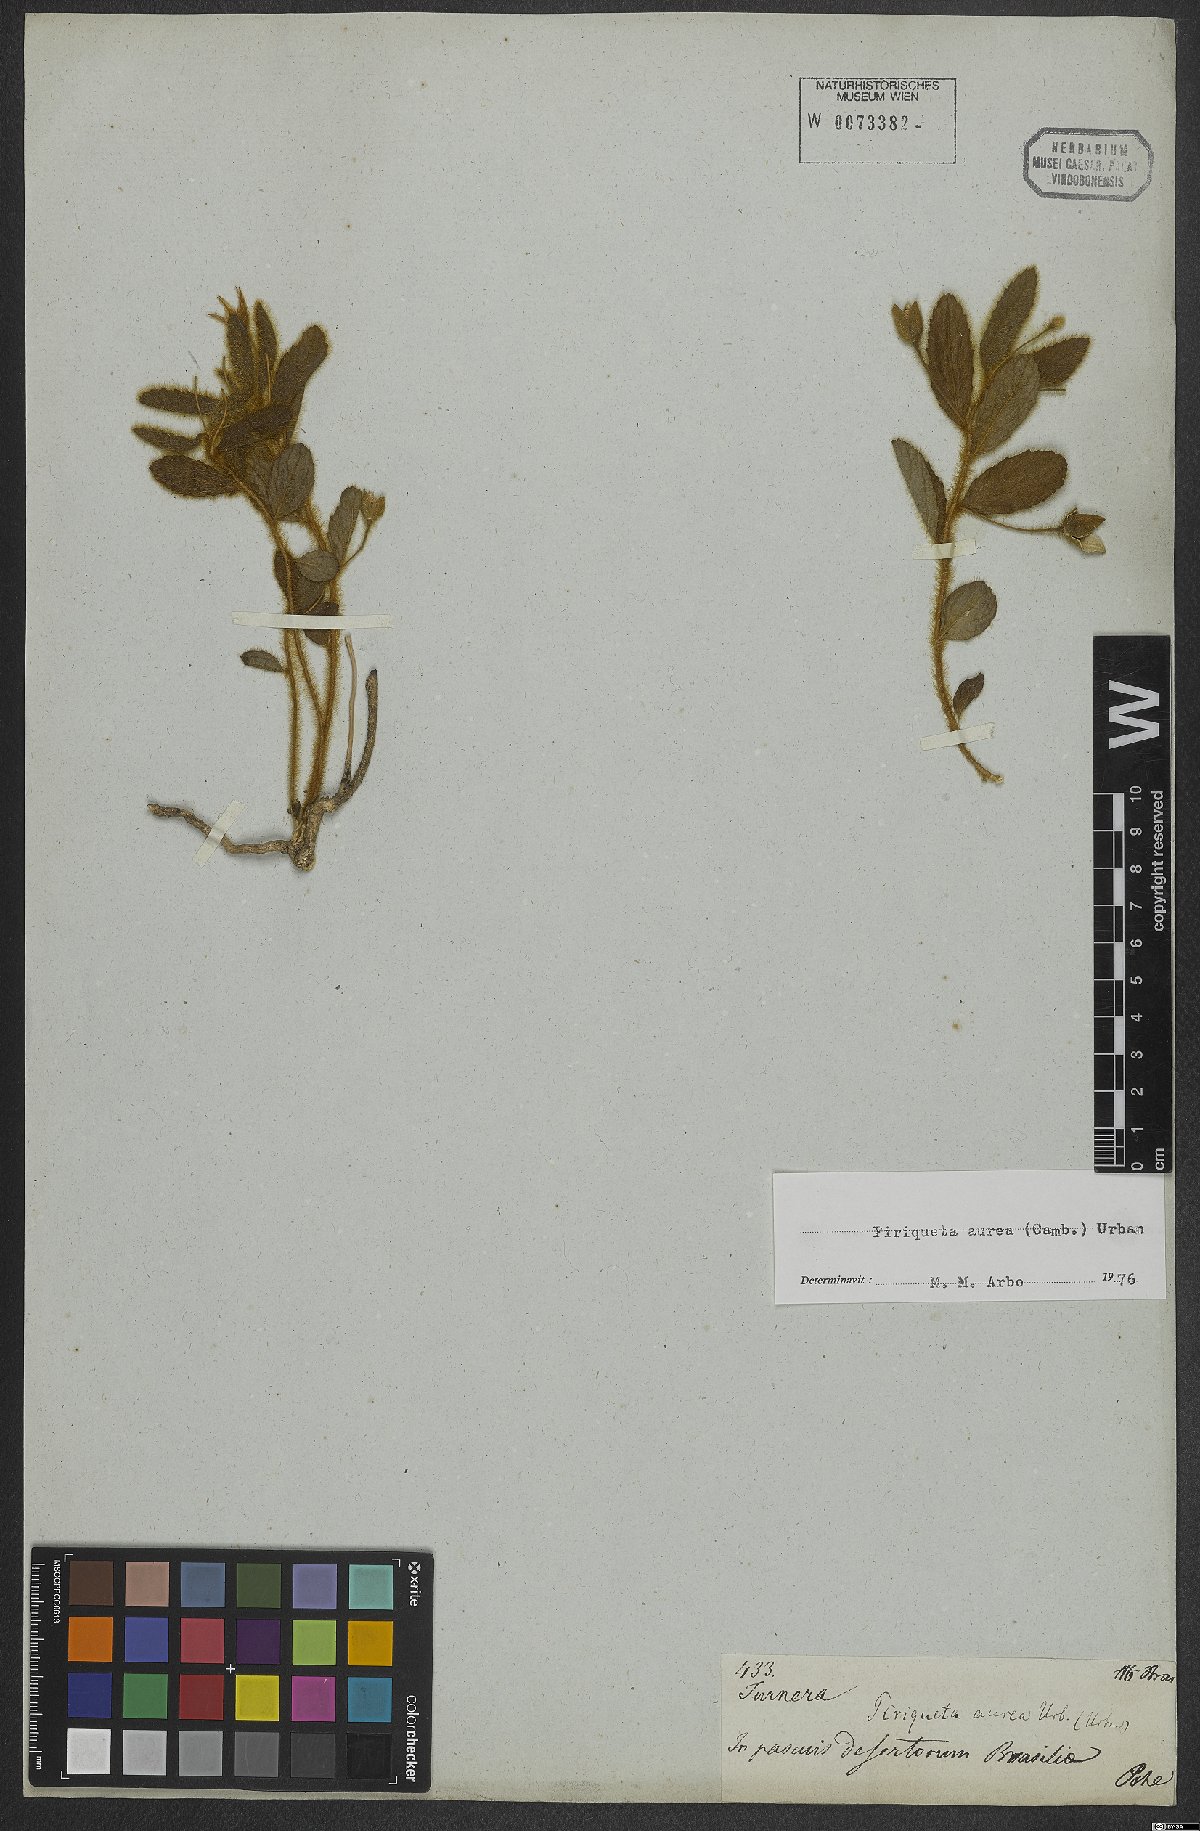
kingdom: Plantae
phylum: Tracheophyta
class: Magnoliopsida
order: Malpighiales
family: Turneraceae
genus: Piriqueta
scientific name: Piriqueta aurea
